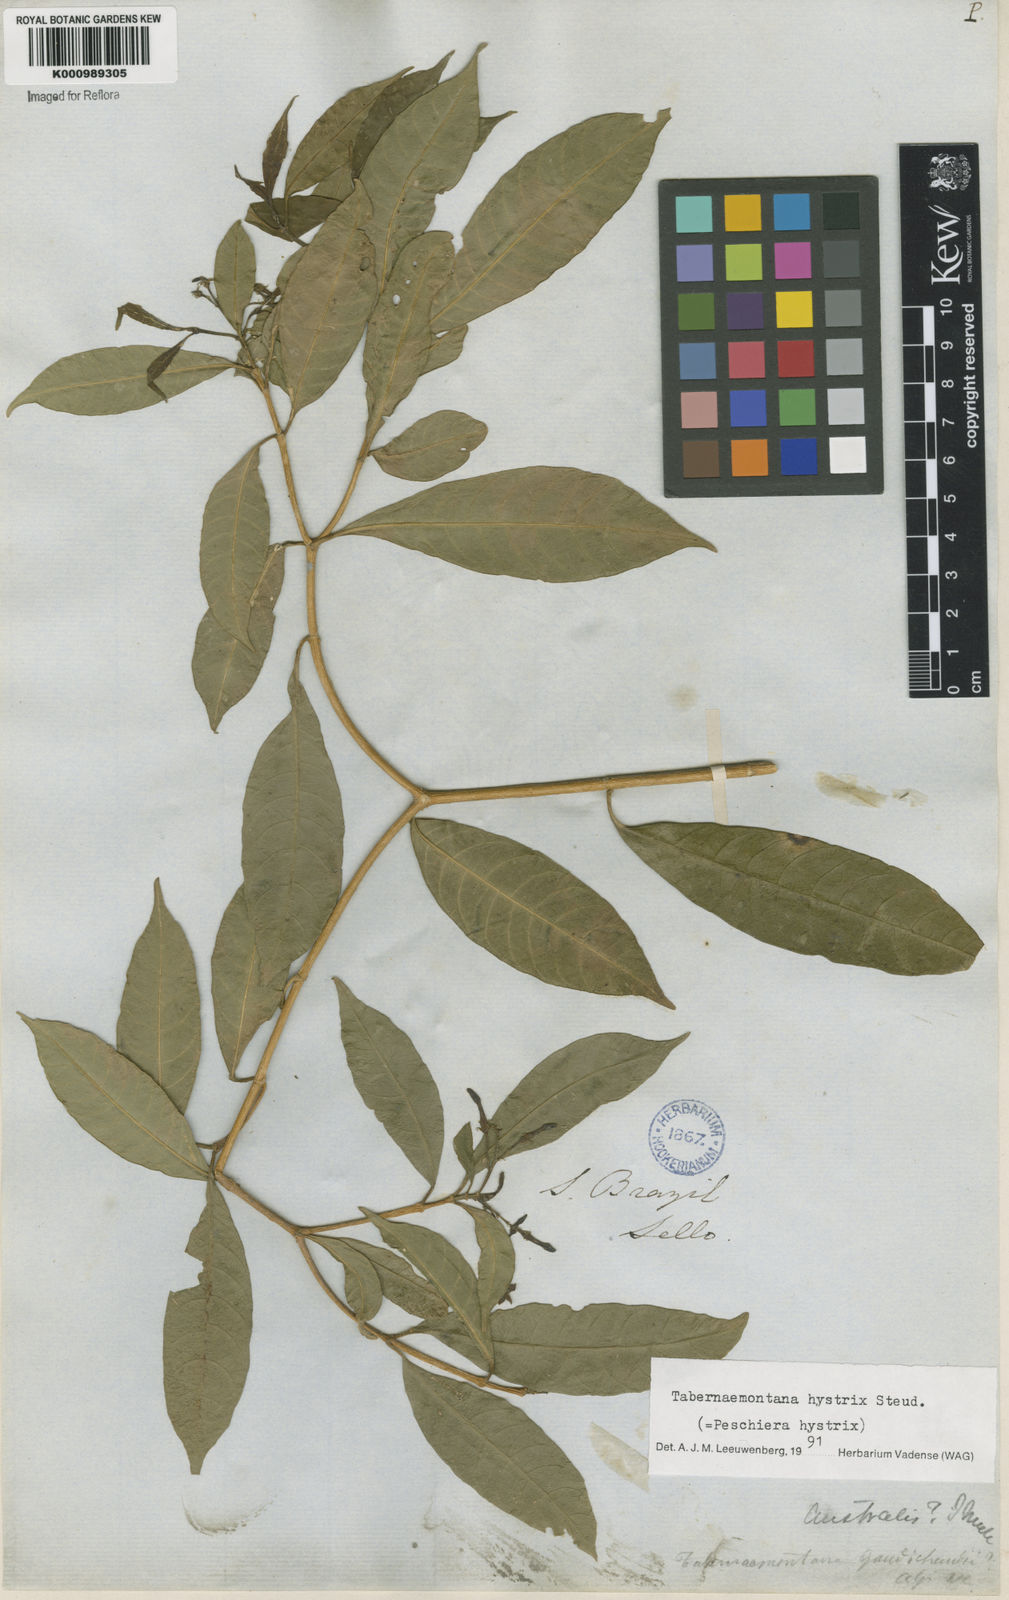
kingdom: Plantae
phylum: Tracheophyta
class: Magnoliopsida
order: Gentianales
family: Apocynaceae
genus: Tabernaemontana
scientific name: Tabernaemontana hystrix
